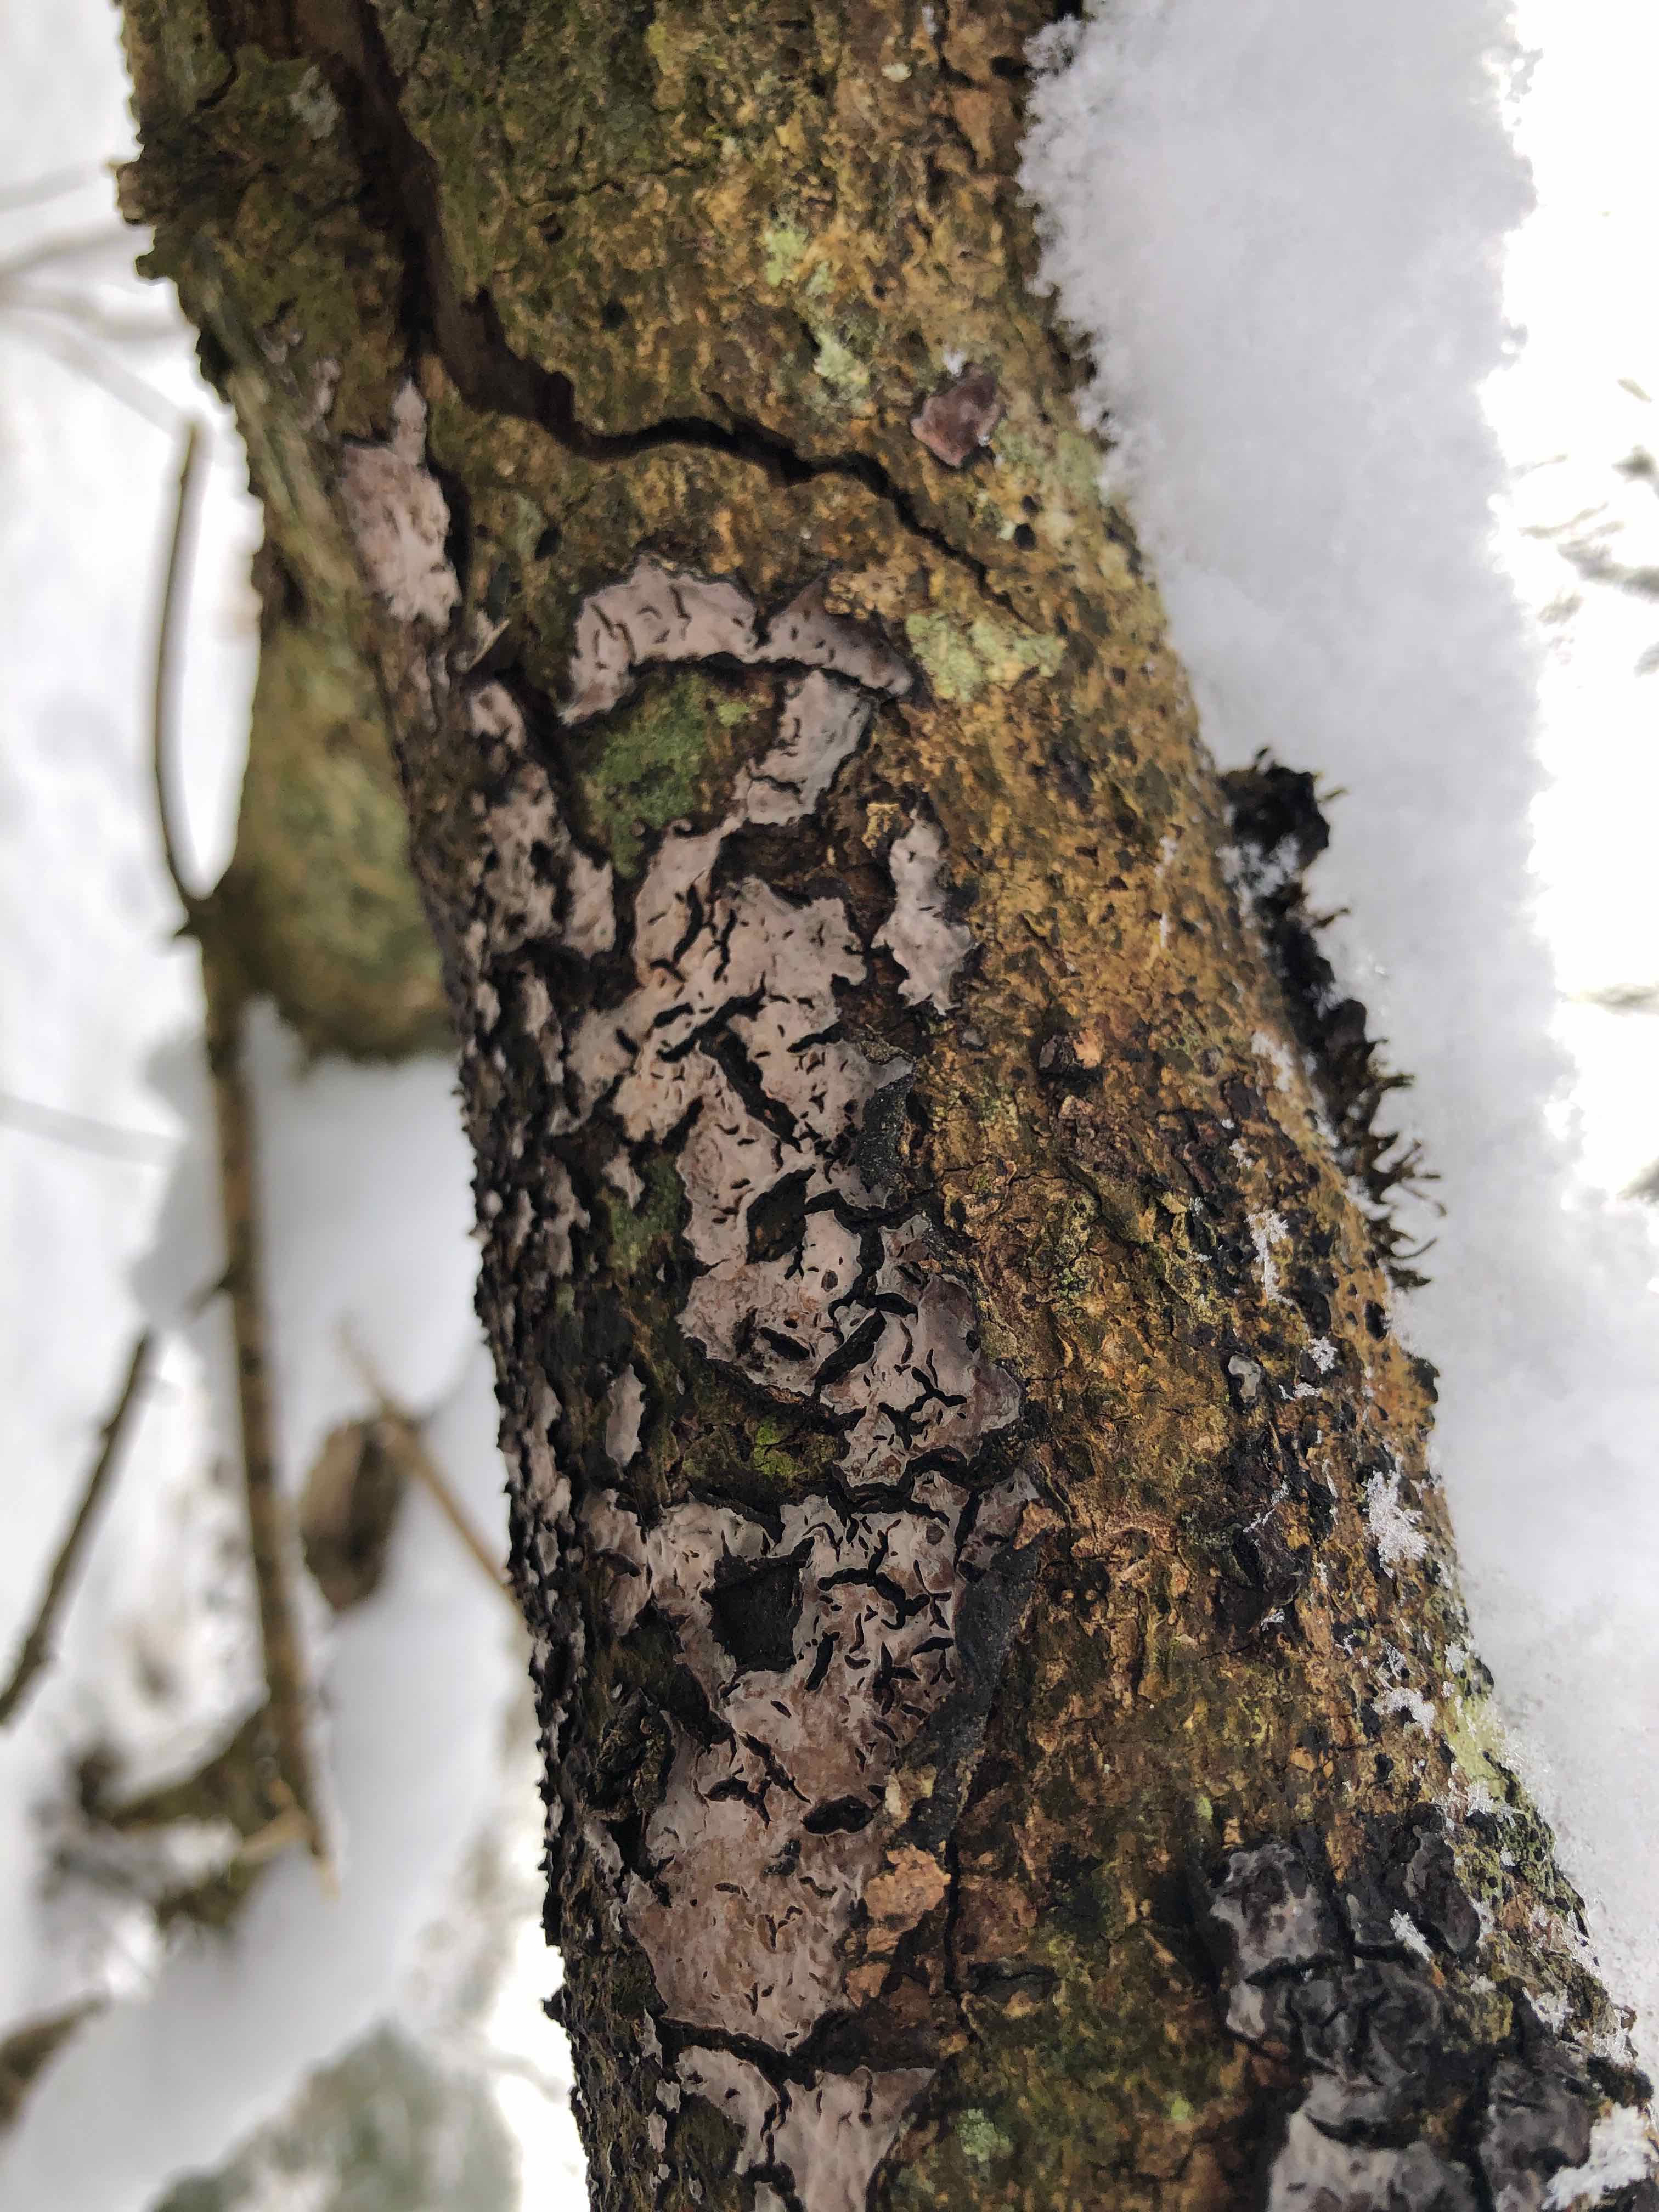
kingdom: Fungi
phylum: Basidiomycota
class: Agaricomycetes
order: Russulales
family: Peniophoraceae
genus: Peniophora
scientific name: Peniophora quercina
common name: ege-voksskind
